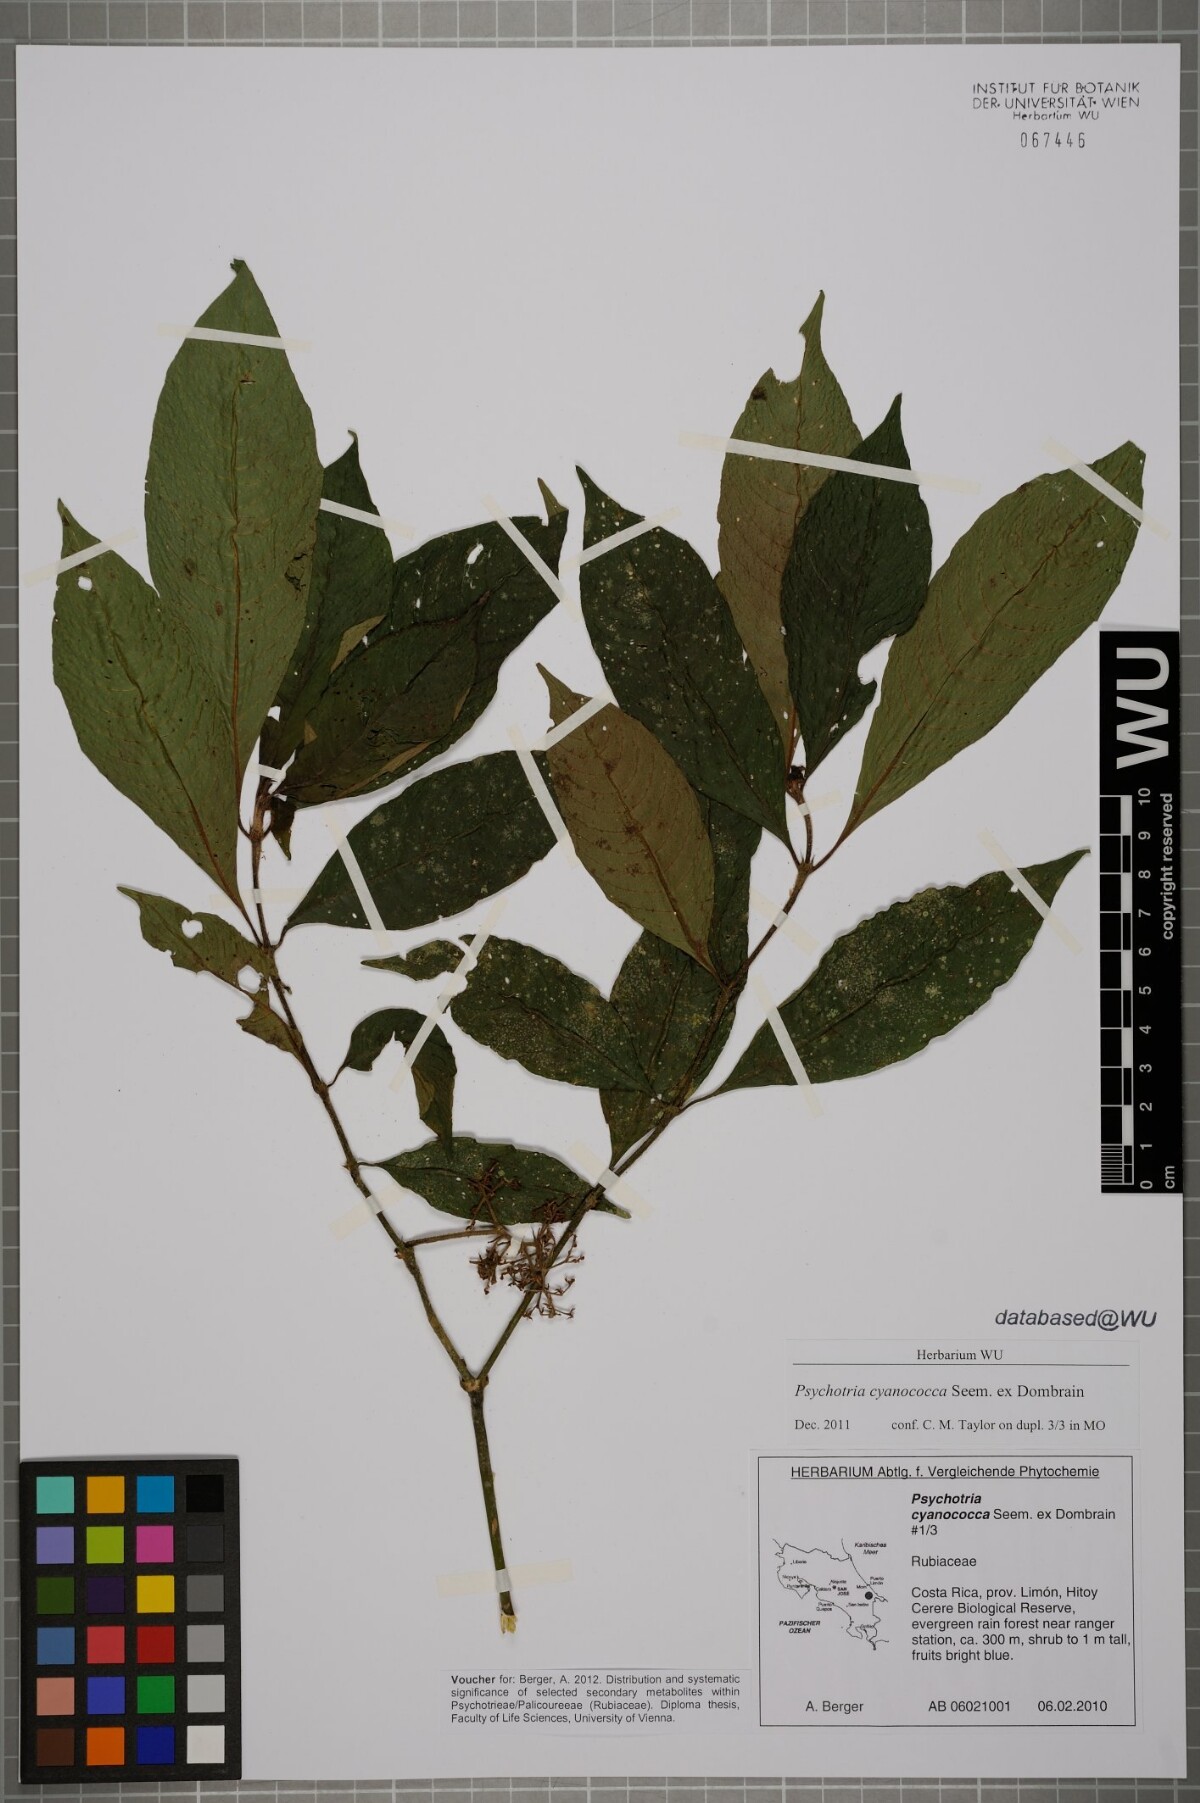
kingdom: Plantae
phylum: Tracheophyta
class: Magnoliopsida
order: Gentianales
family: Rubiaceae
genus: Palicourea
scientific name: Palicourea cyanococca
